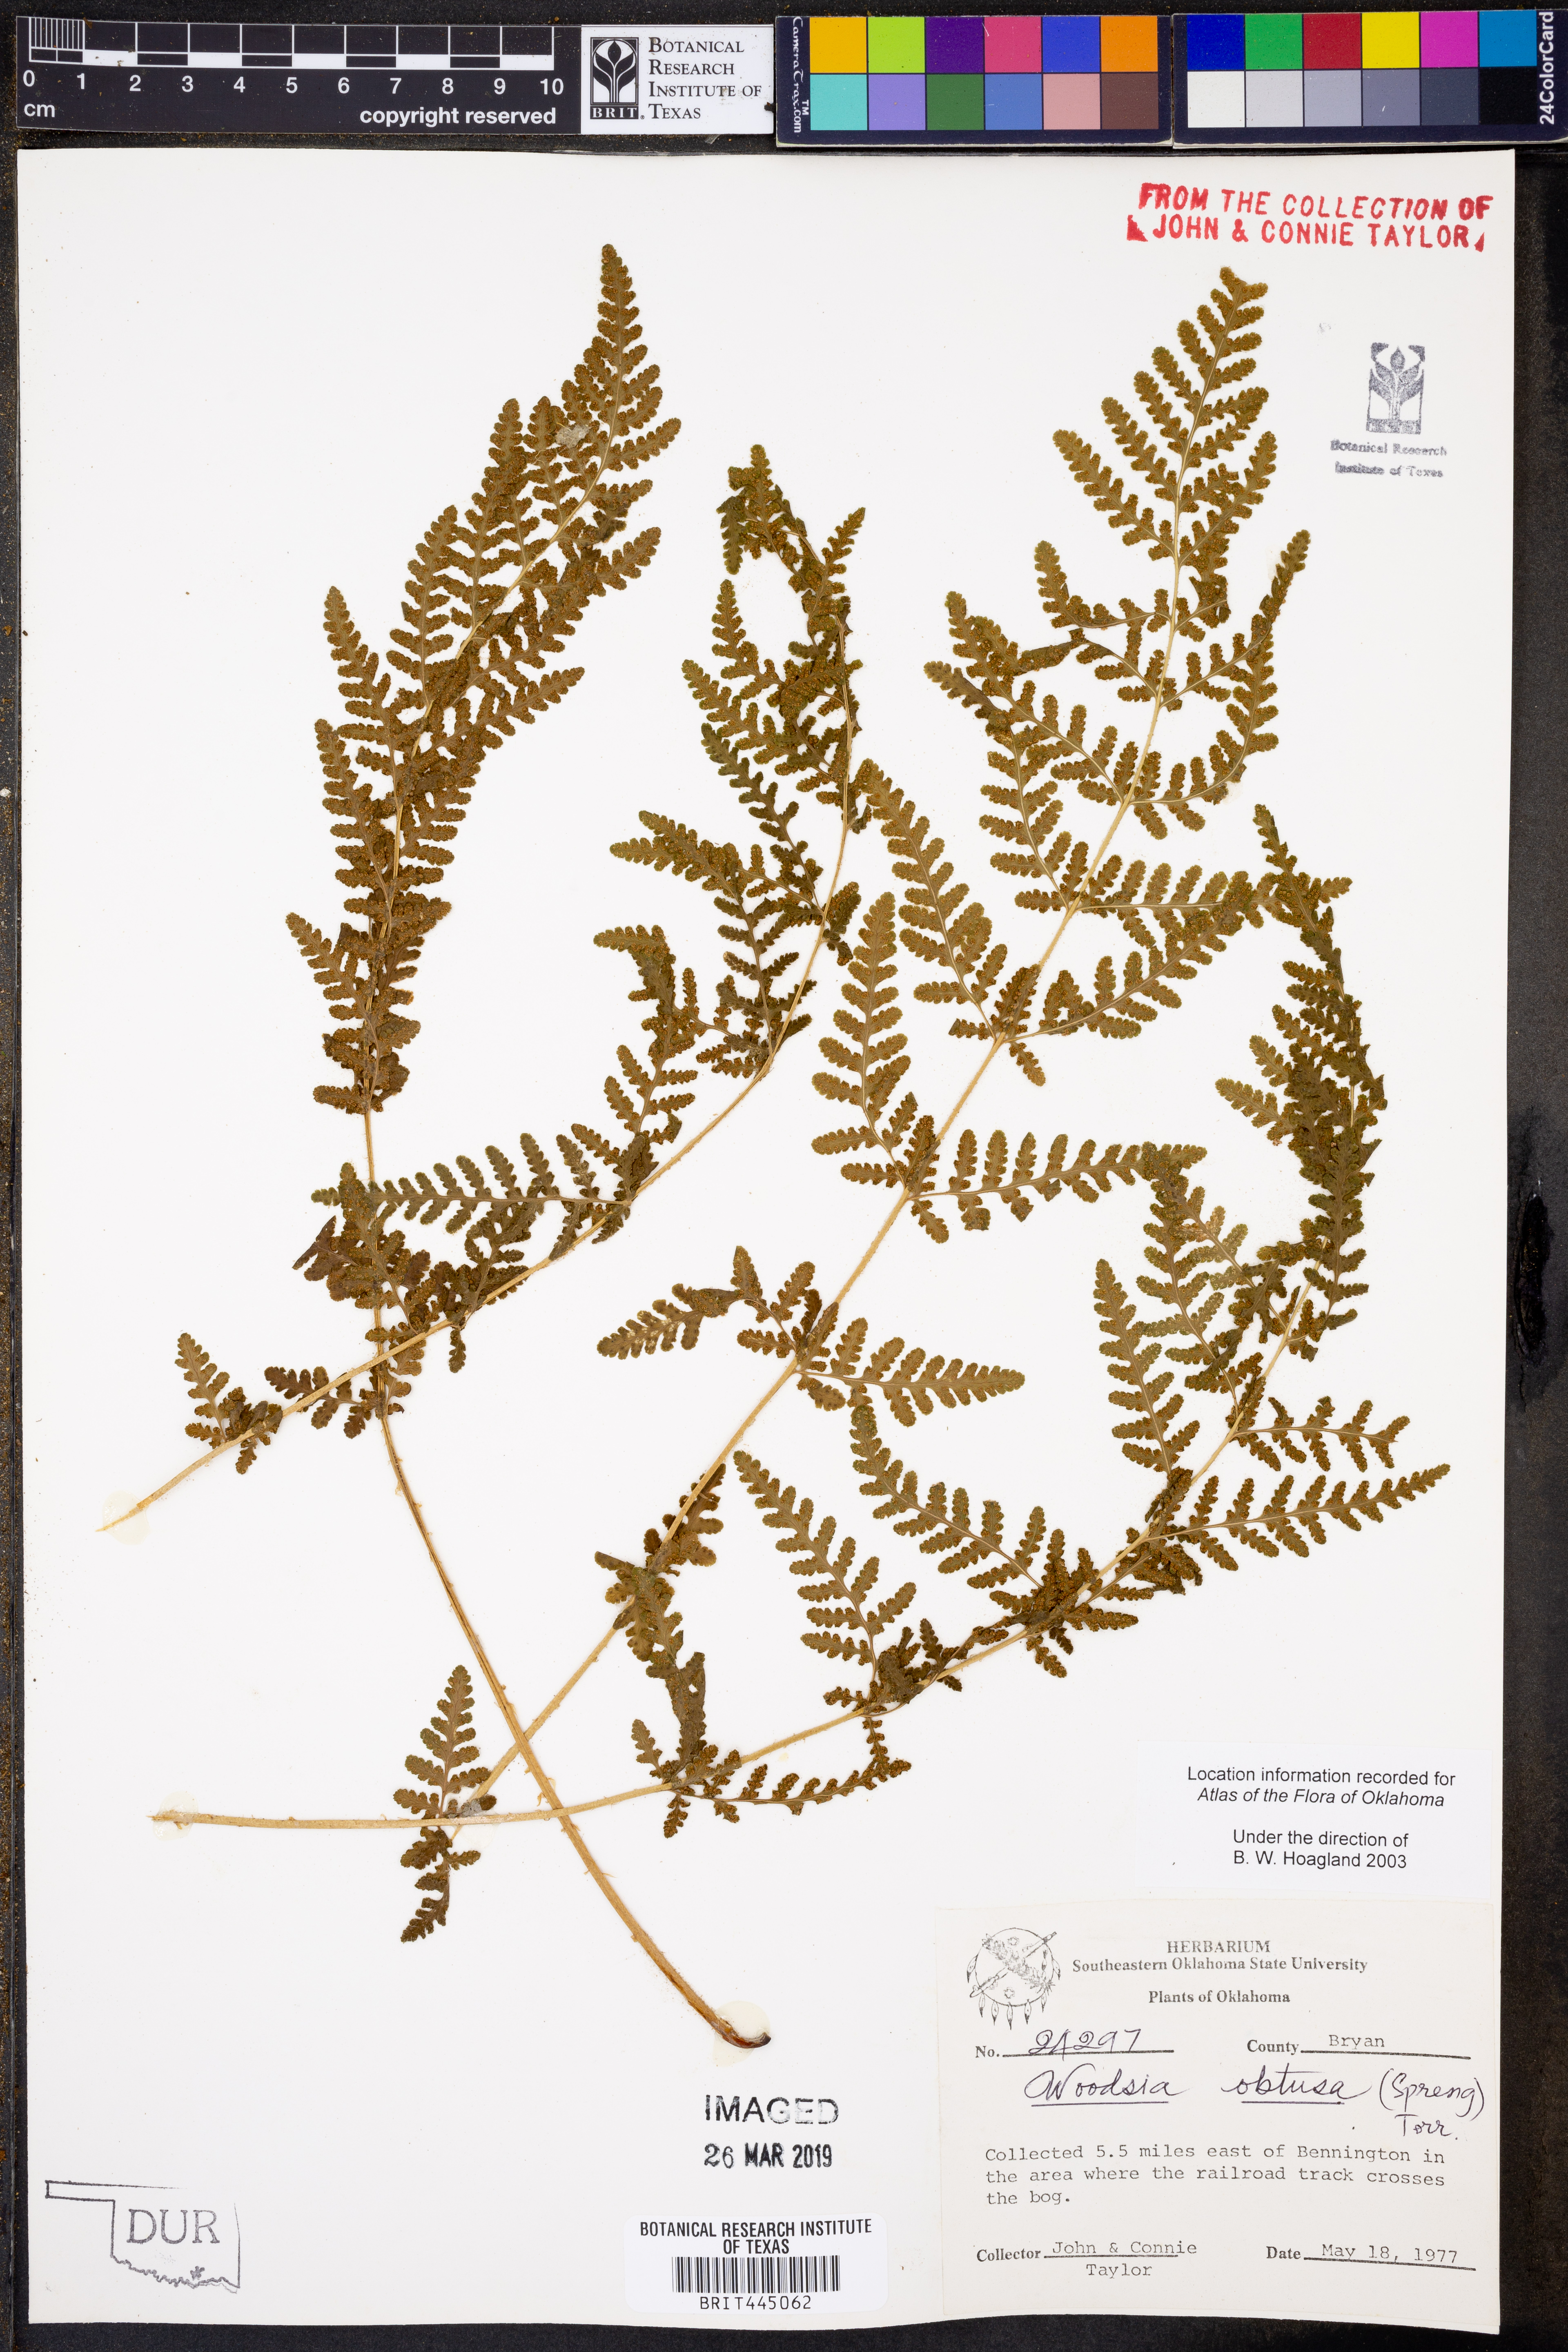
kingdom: Plantae
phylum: Tracheophyta
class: Polypodiopsida
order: Polypodiales
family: Woodsiaceae
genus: Physematium
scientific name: Physematium obtusum
